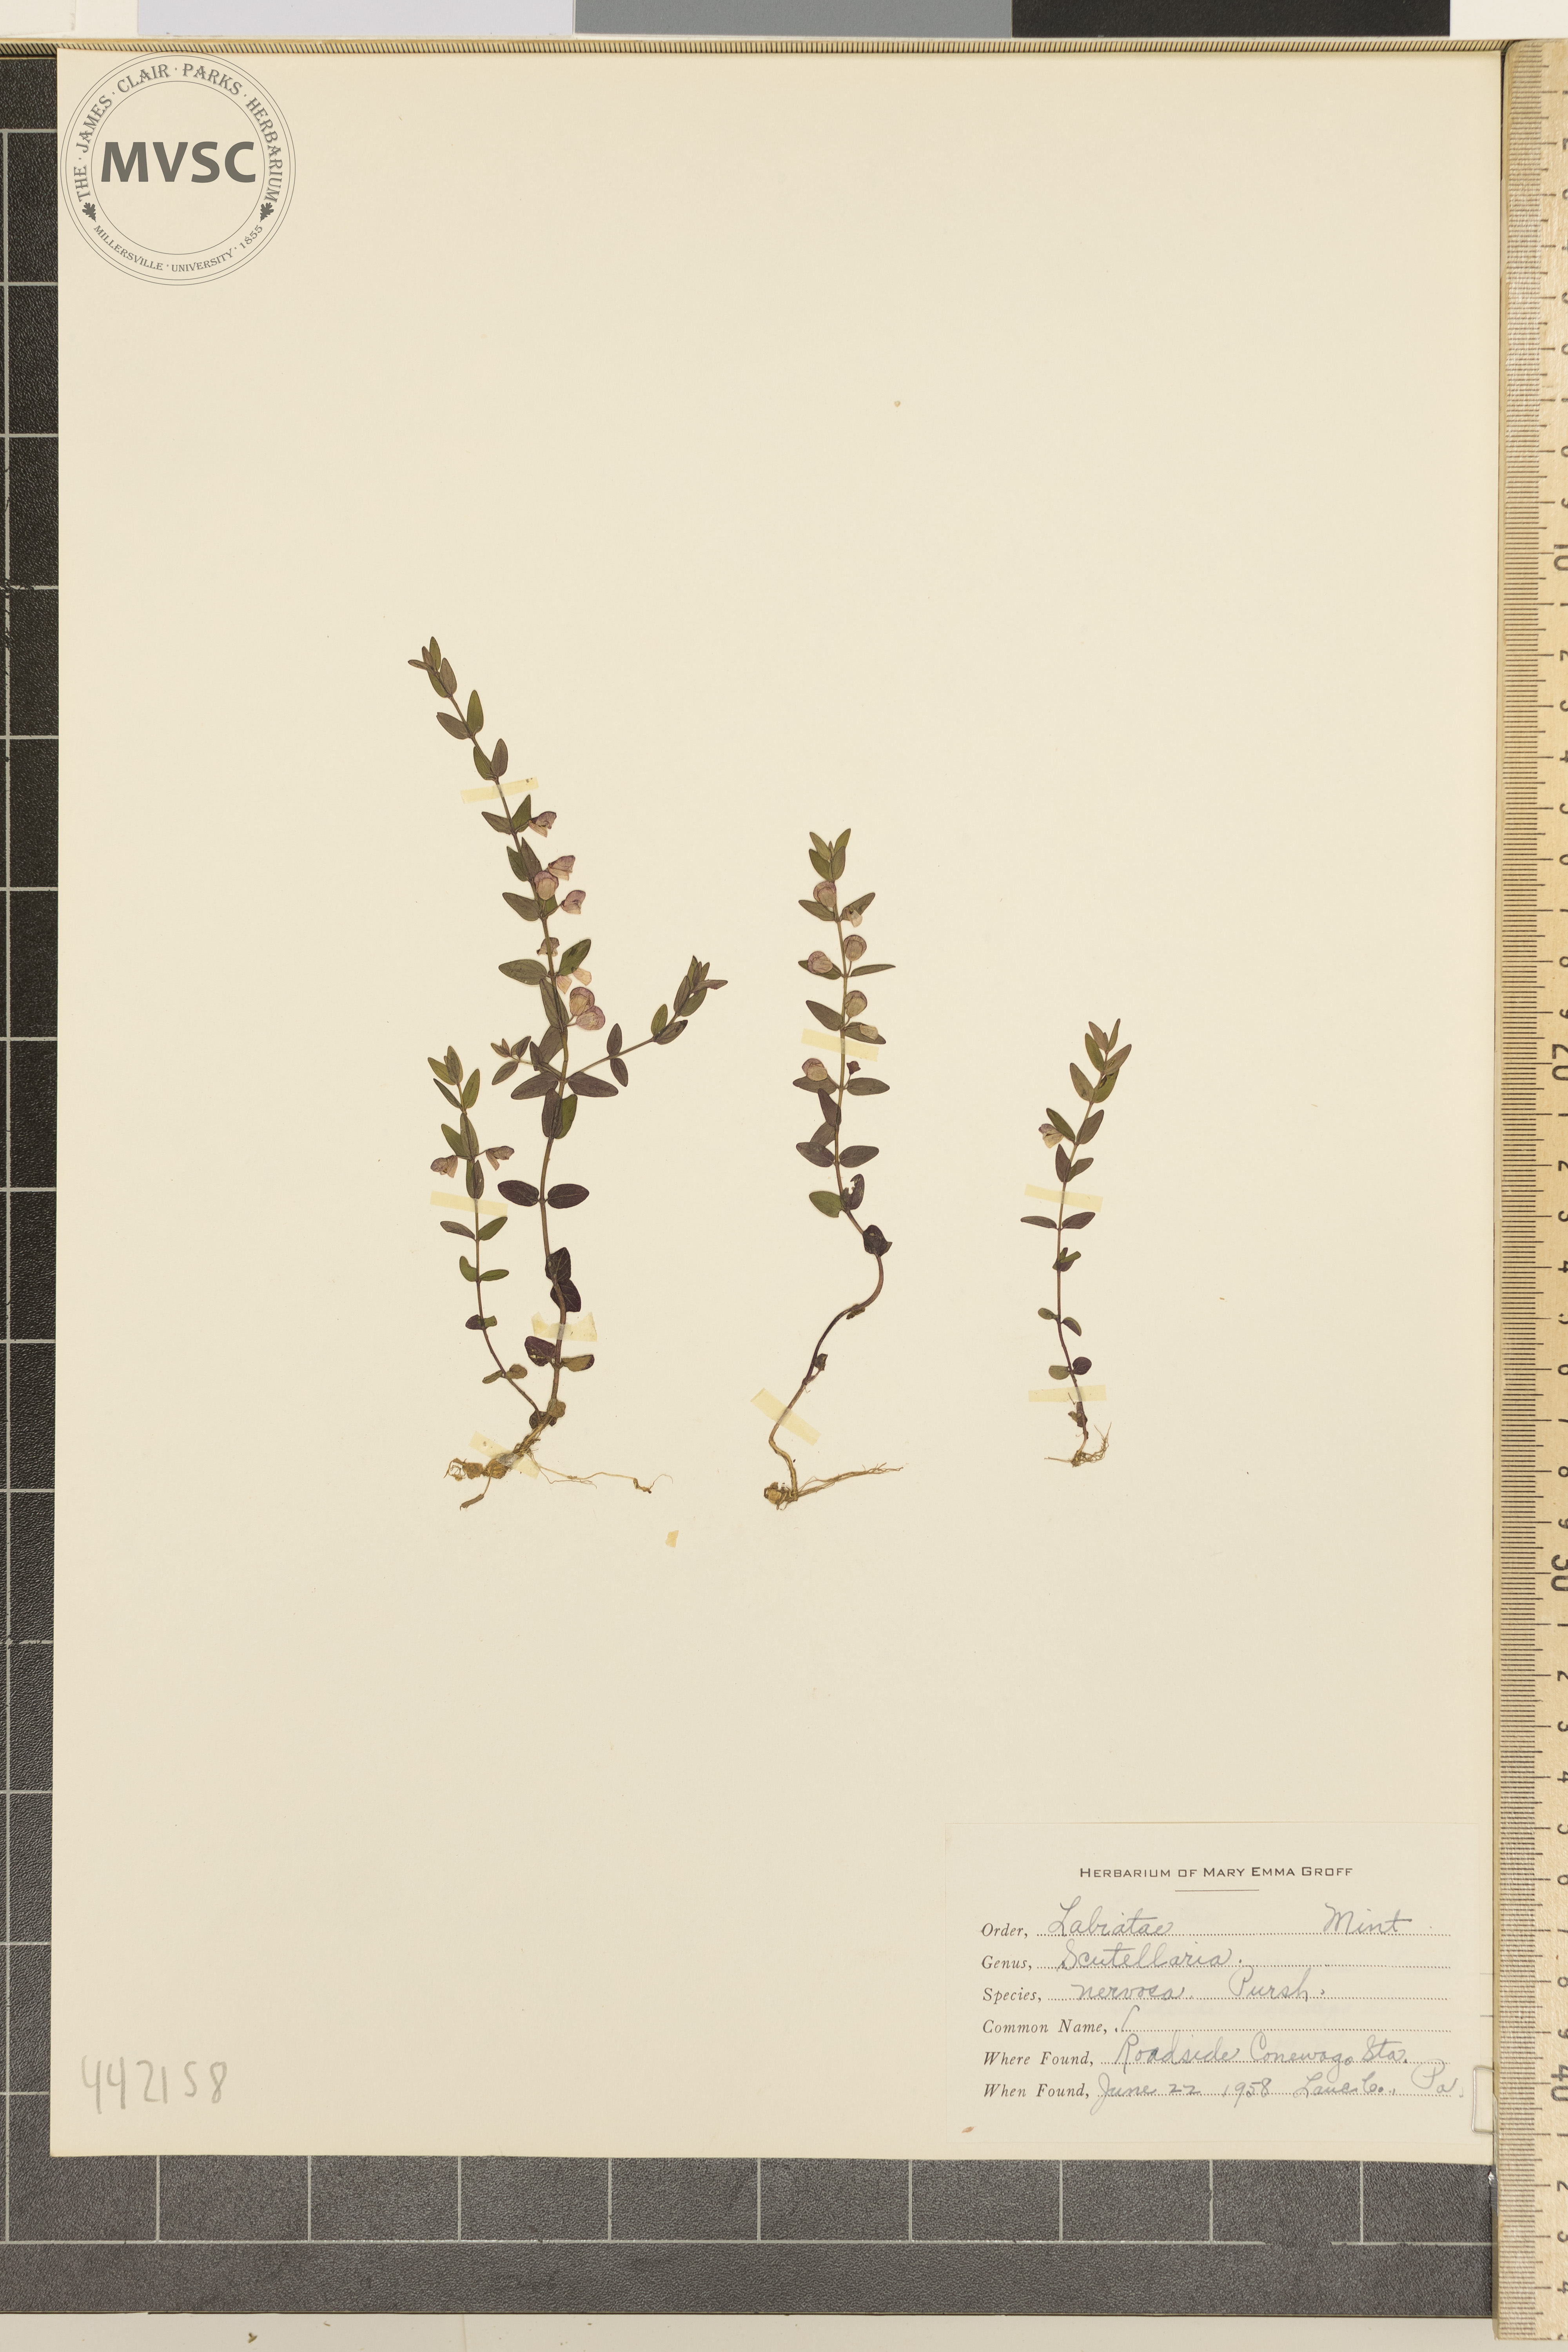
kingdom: Plantae
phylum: Tracheophyta
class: Magnoliopsida
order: Lamiales
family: Lamiaceae
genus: Scutellaria
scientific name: Scutellaria nervosa
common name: Bottomland skullcap
